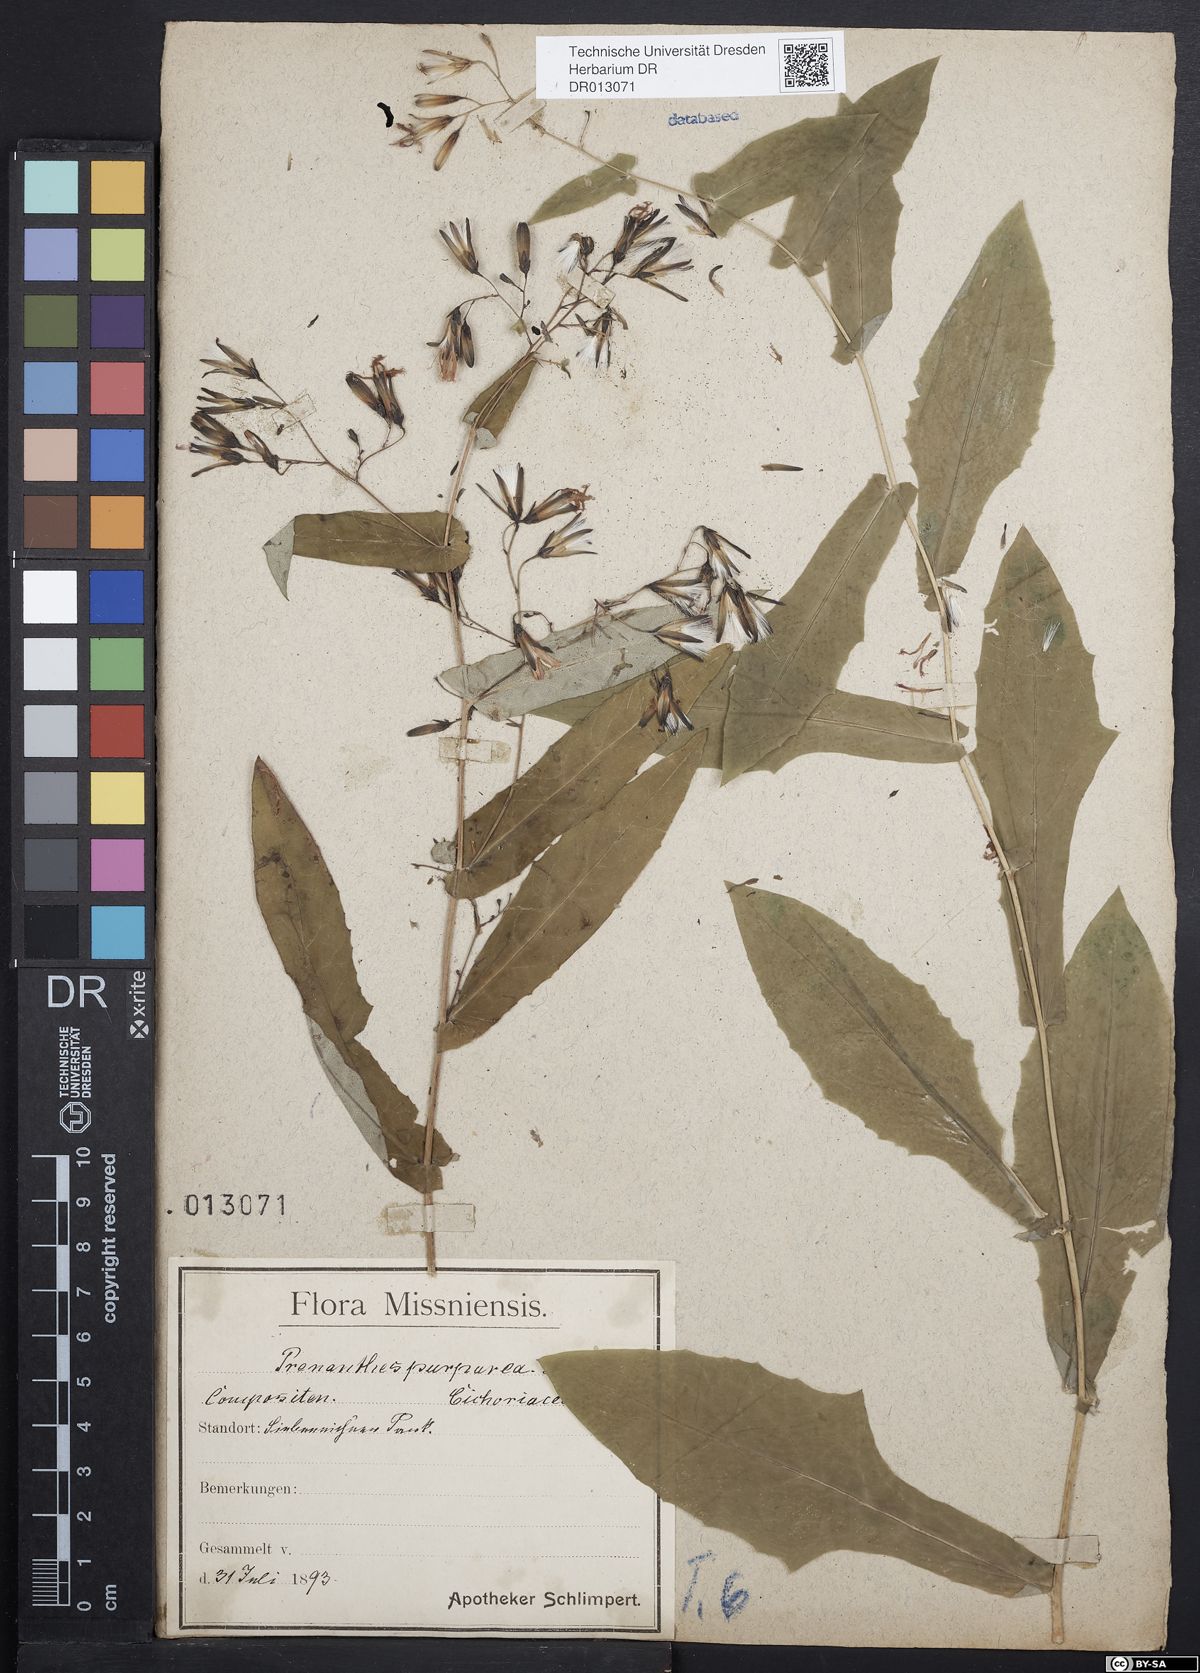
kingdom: Plantae
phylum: Tracheophyta
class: Magnoliopsida
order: Asterales
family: Asteraceae
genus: Prenanthes
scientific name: Prenanthes purpurea
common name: Purple lettuce
